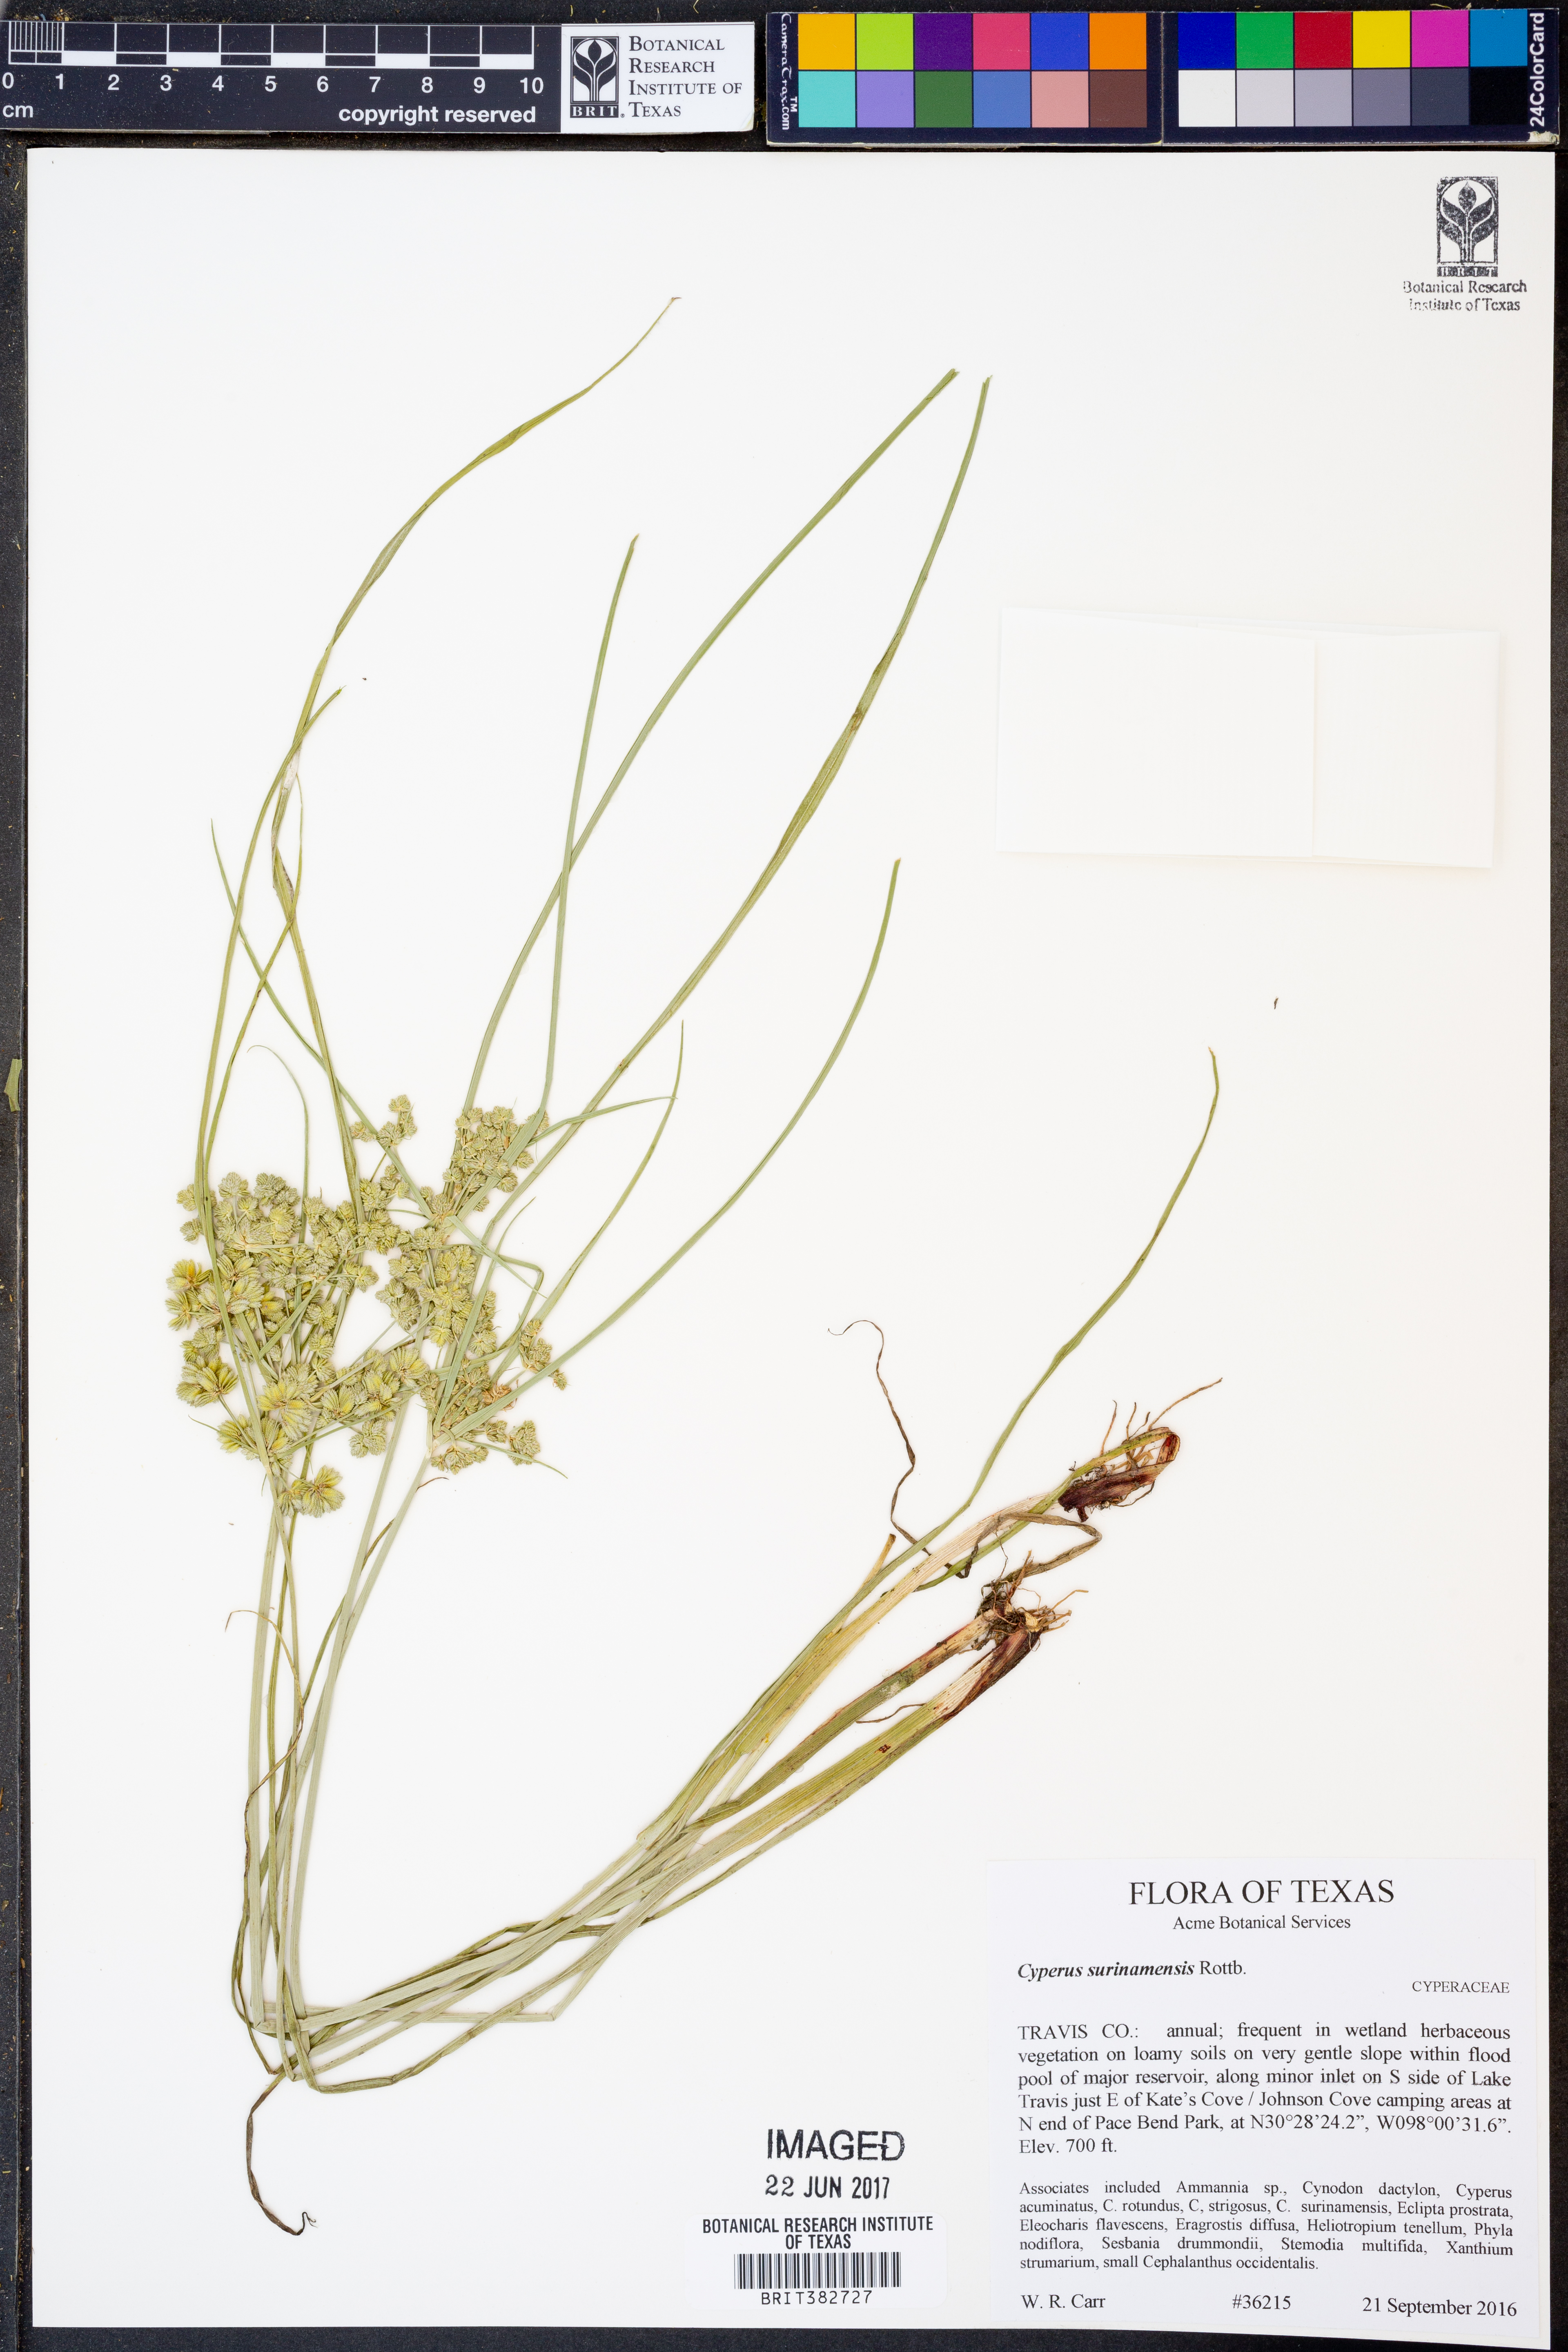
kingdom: Plantae
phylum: Tracheophyta
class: Liliopsida
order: Poales
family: Cyperaceae
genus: Cyperus
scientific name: Cyperus surinamensis
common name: Tropical flat sedge
